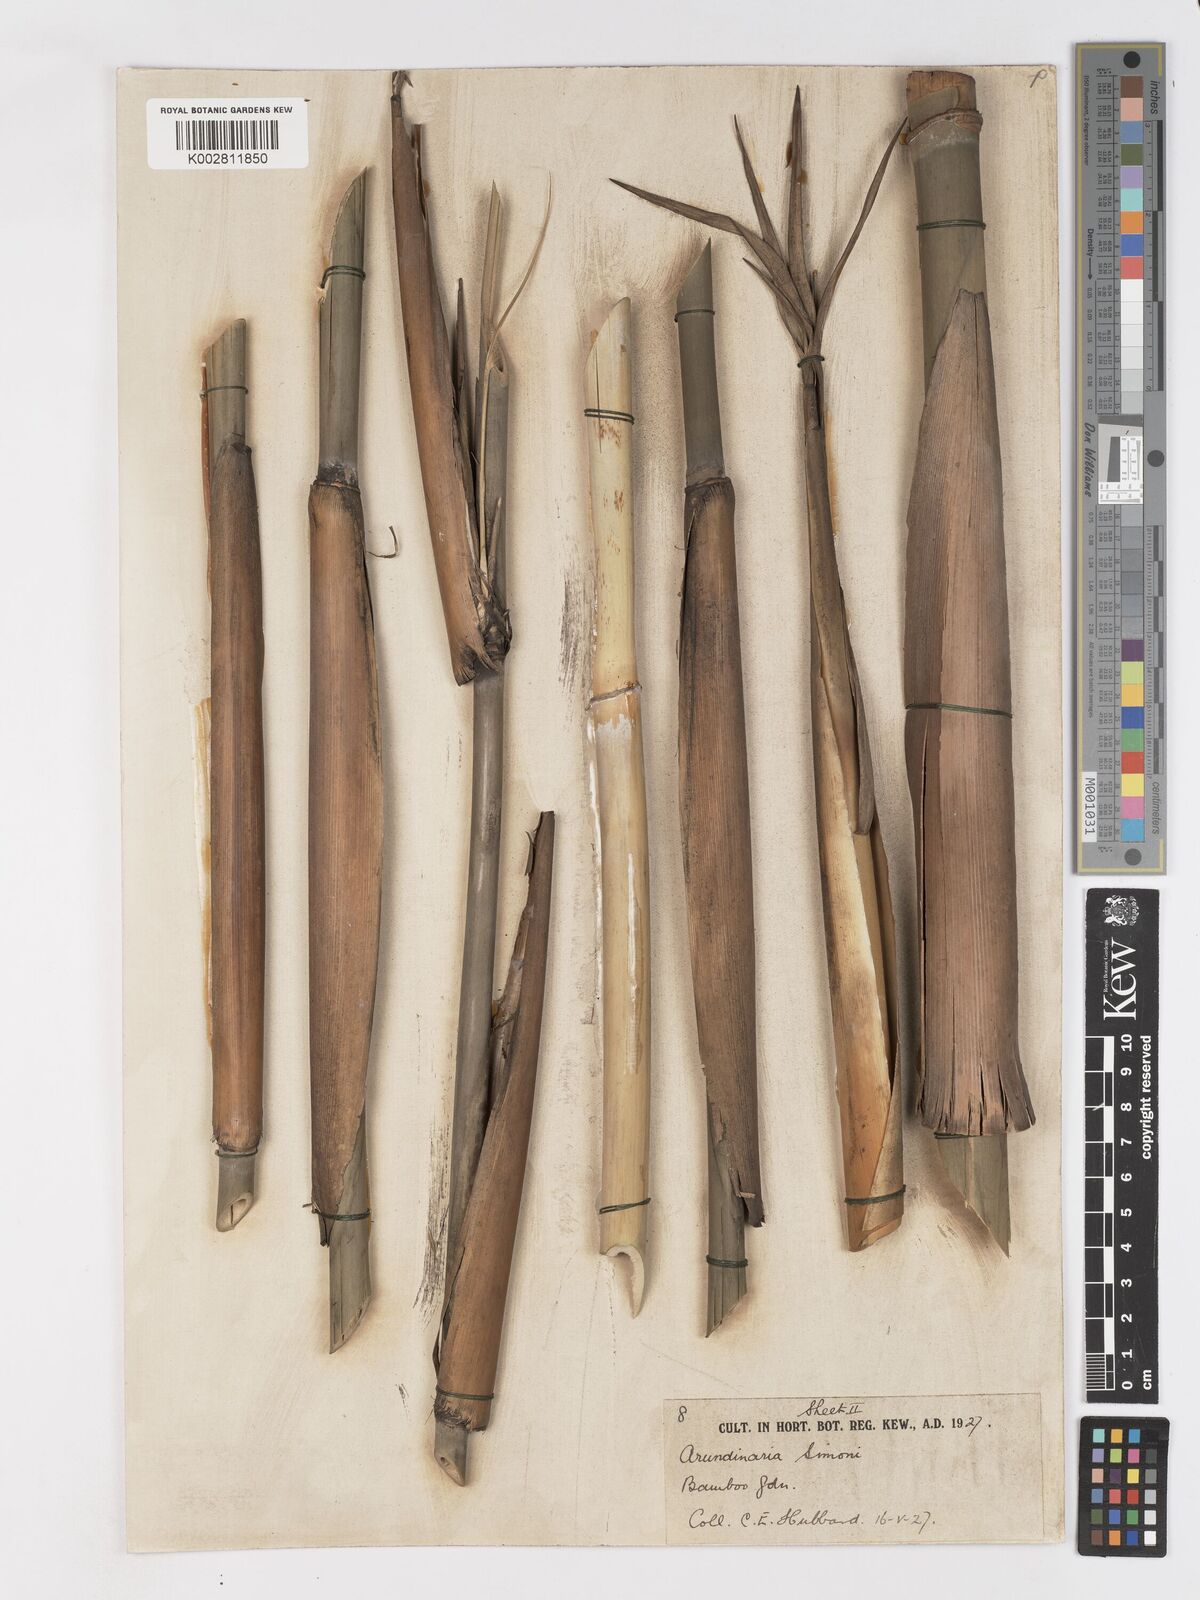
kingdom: Plantae
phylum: Tracheophyta
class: Liliopsida
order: Poales
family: Poaceae
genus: Pleioblastus
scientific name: Pleioblastus simonii
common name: Simon bamboo
